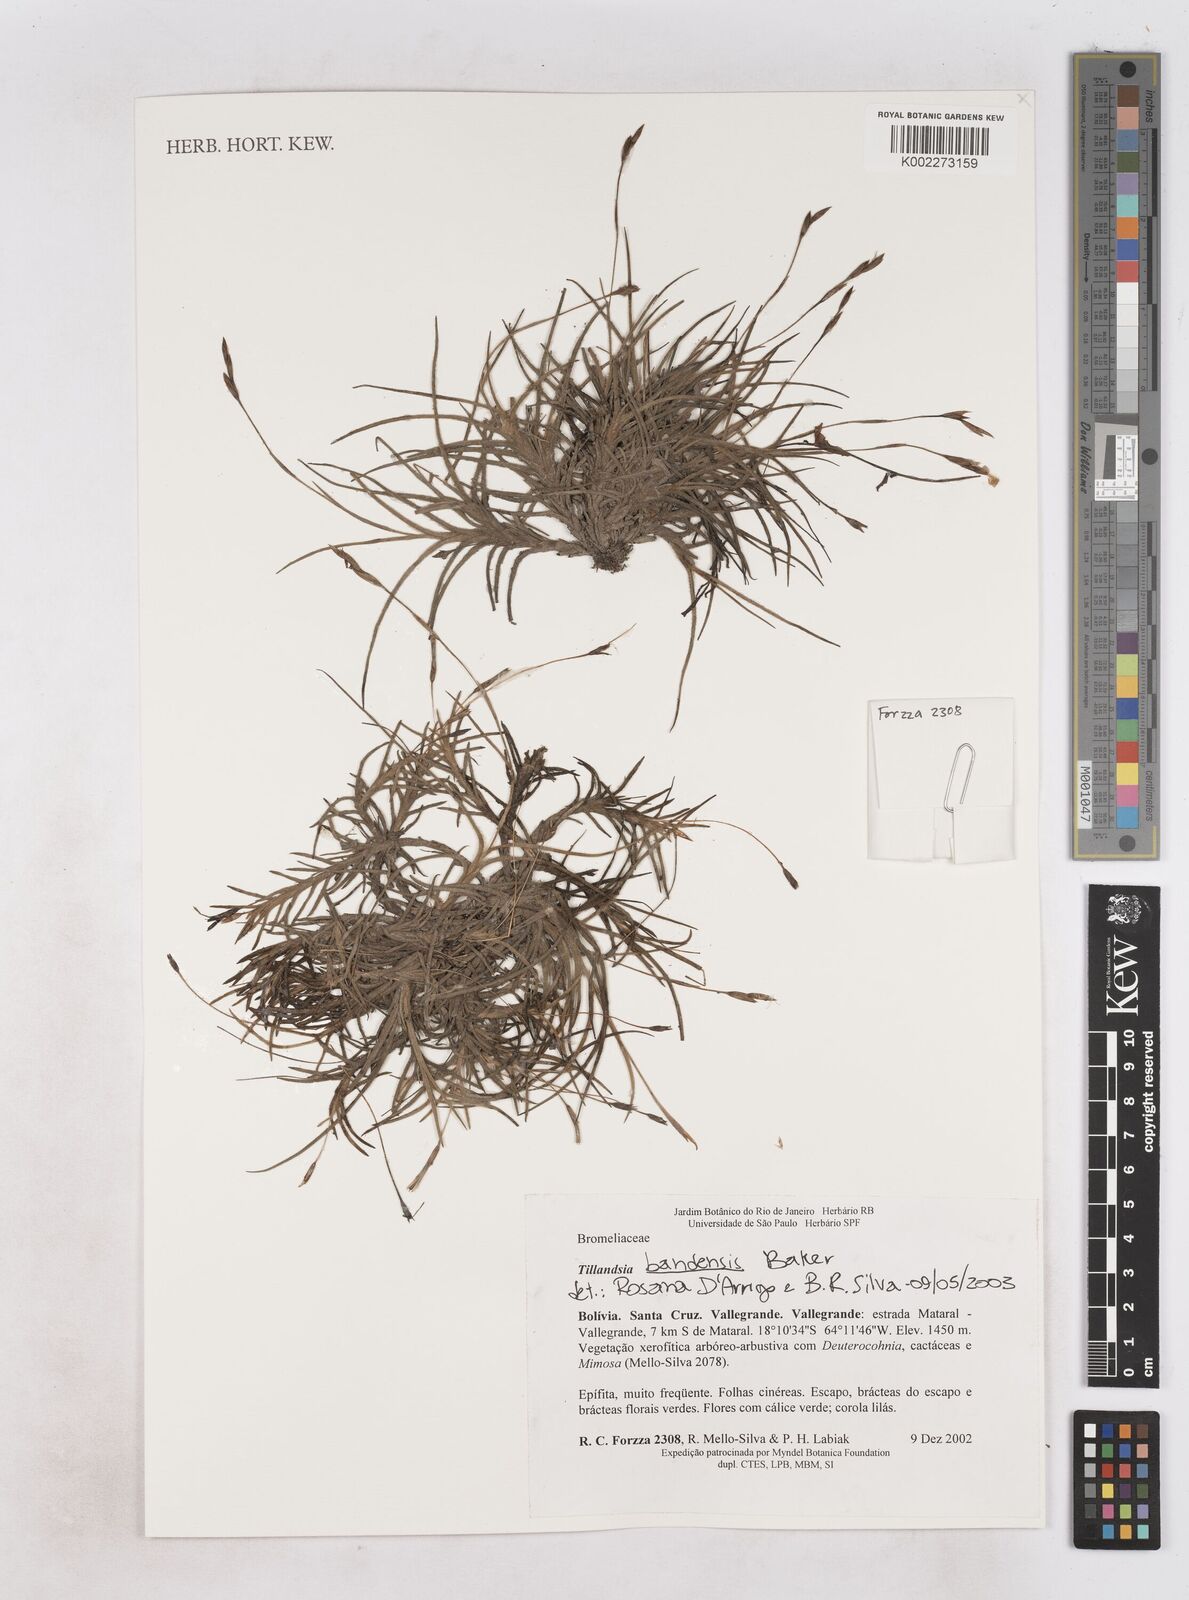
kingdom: Plantae
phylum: Tracheophyta
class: Liliopsida
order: Poales
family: Bromeliaceae
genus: Tillandsia
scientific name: Tillandsia bandensis
